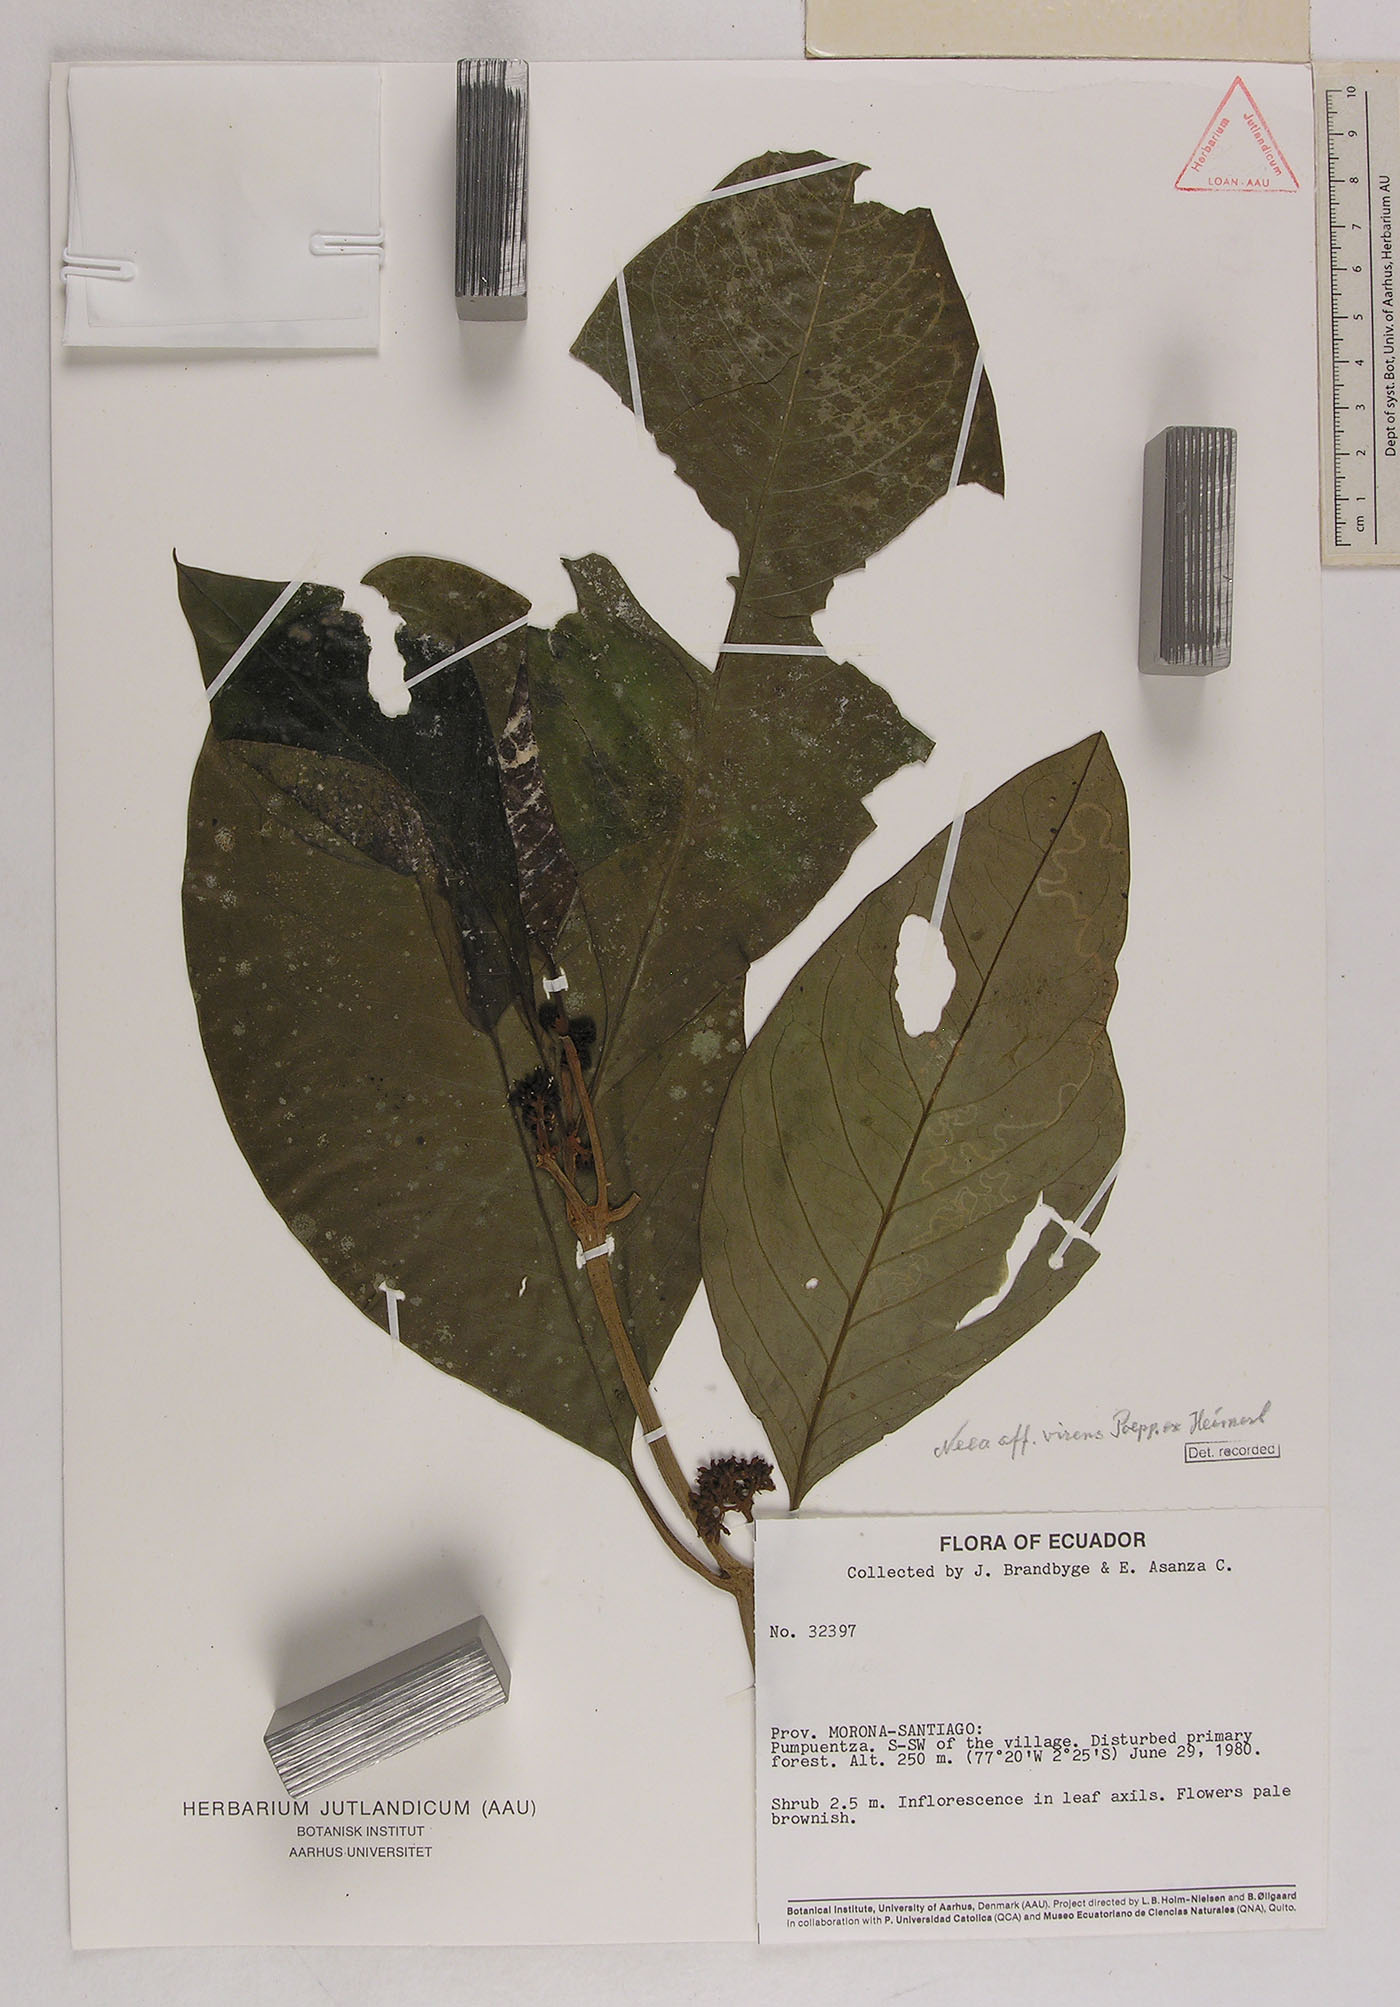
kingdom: Plantae
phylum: Tracheophyta
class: Magnoliopsida
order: Caryophyllales
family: Nyctaginaceae
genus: Neea
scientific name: Neea virens
